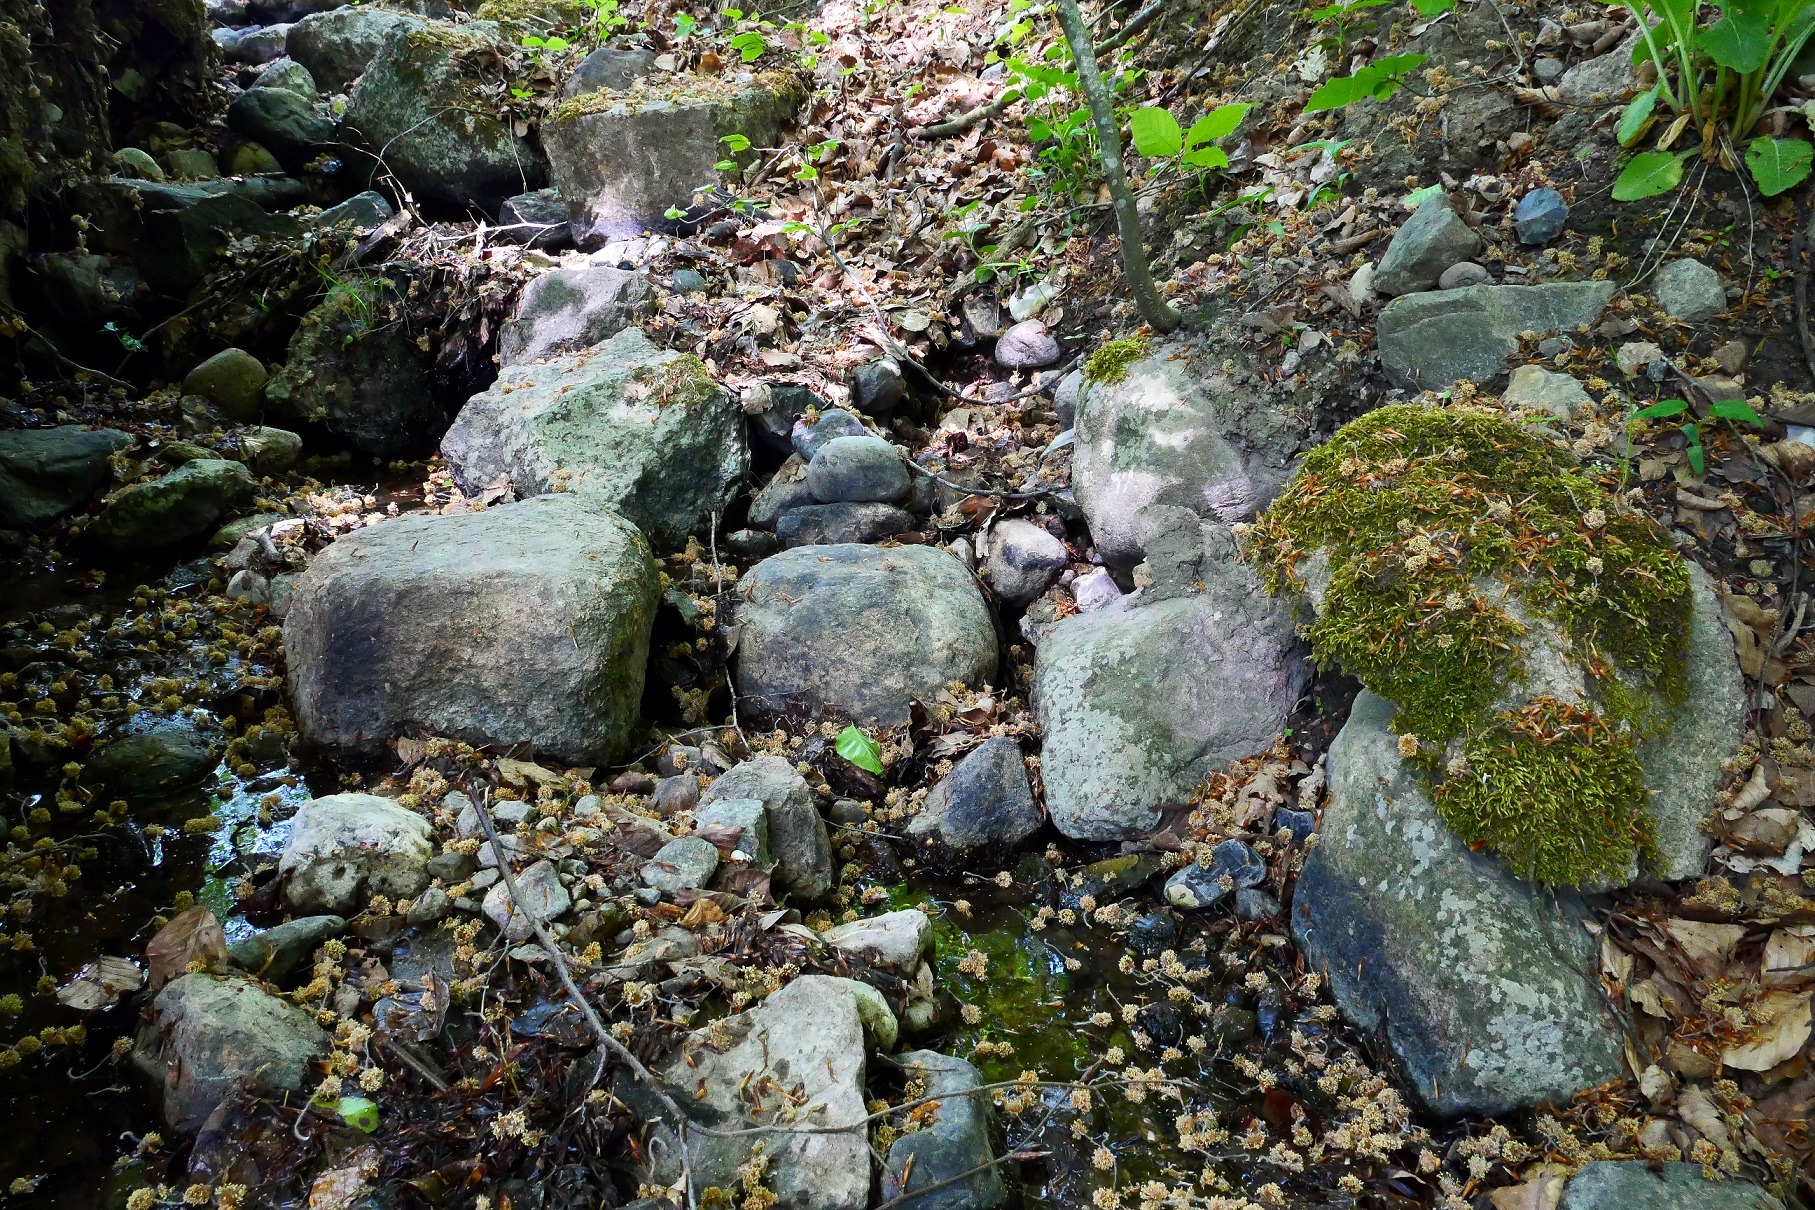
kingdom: Plantae
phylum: Bryophyta
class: Bryopsida
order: Hypnales
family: Taxiphyllaceae
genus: Taxiphyllum
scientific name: Taxiphyllum wissgrillii
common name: Tandet trådmos
